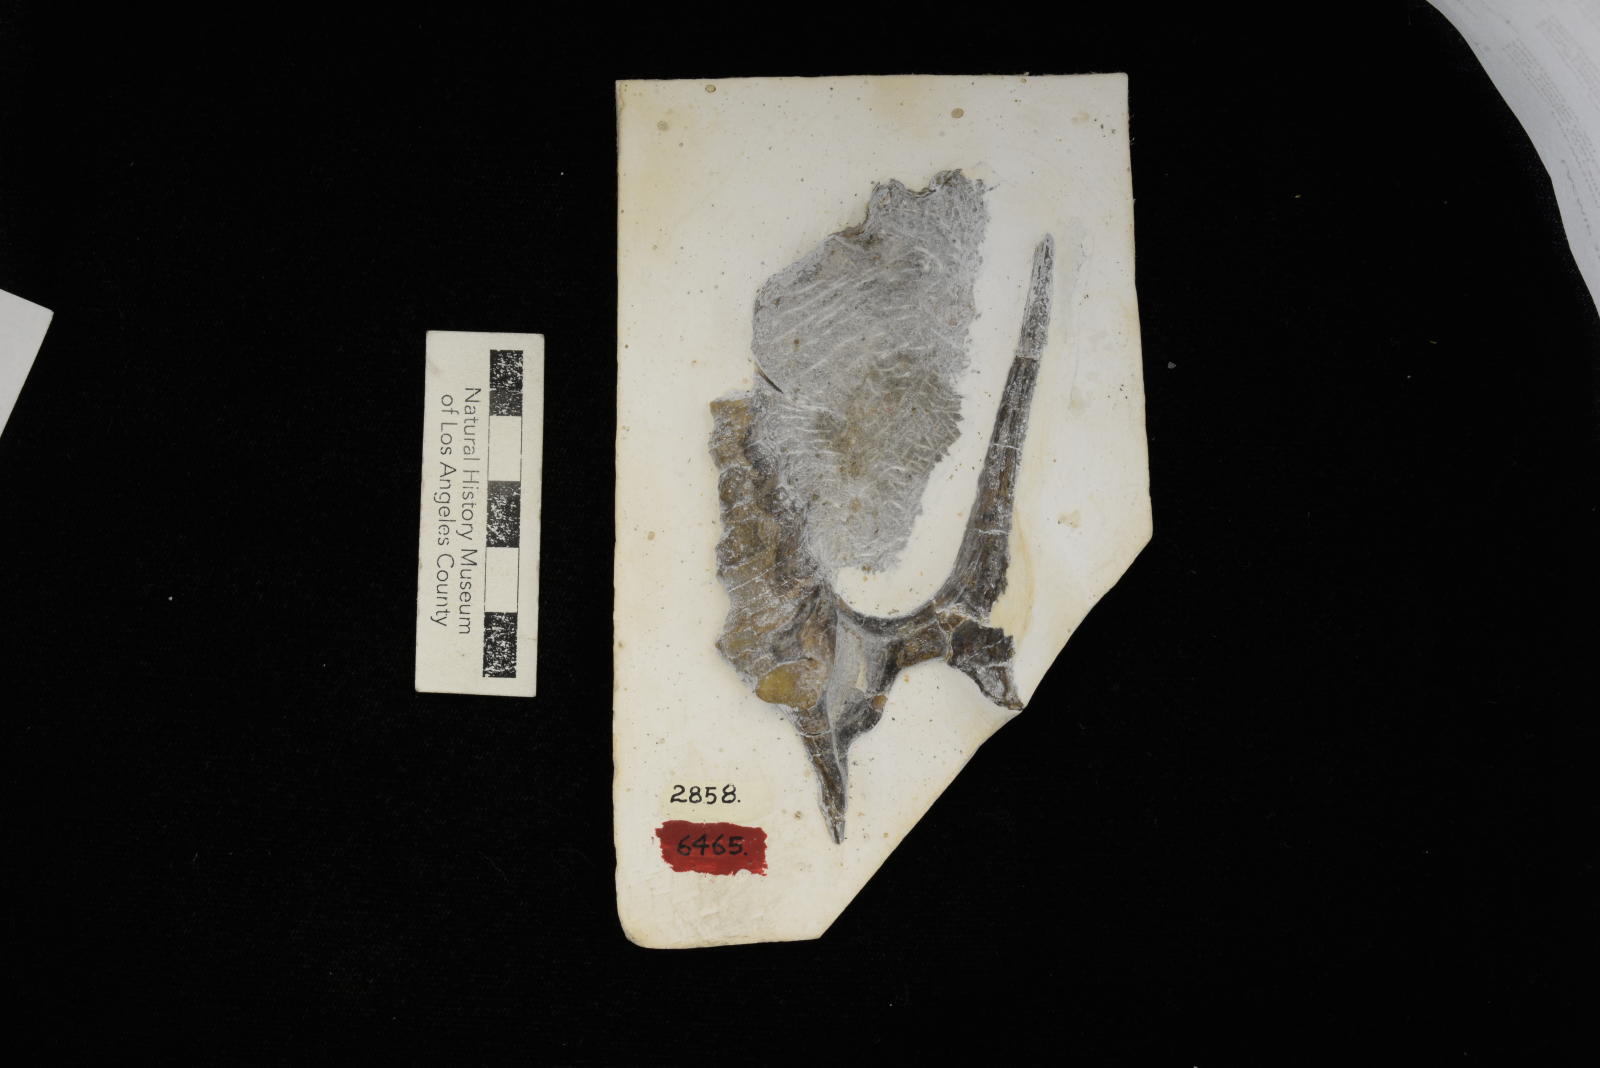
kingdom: Animalia
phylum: Mollusca
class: Gastropoda
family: Nerineidae
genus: Nerinea
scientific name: Nerinea stewarti
